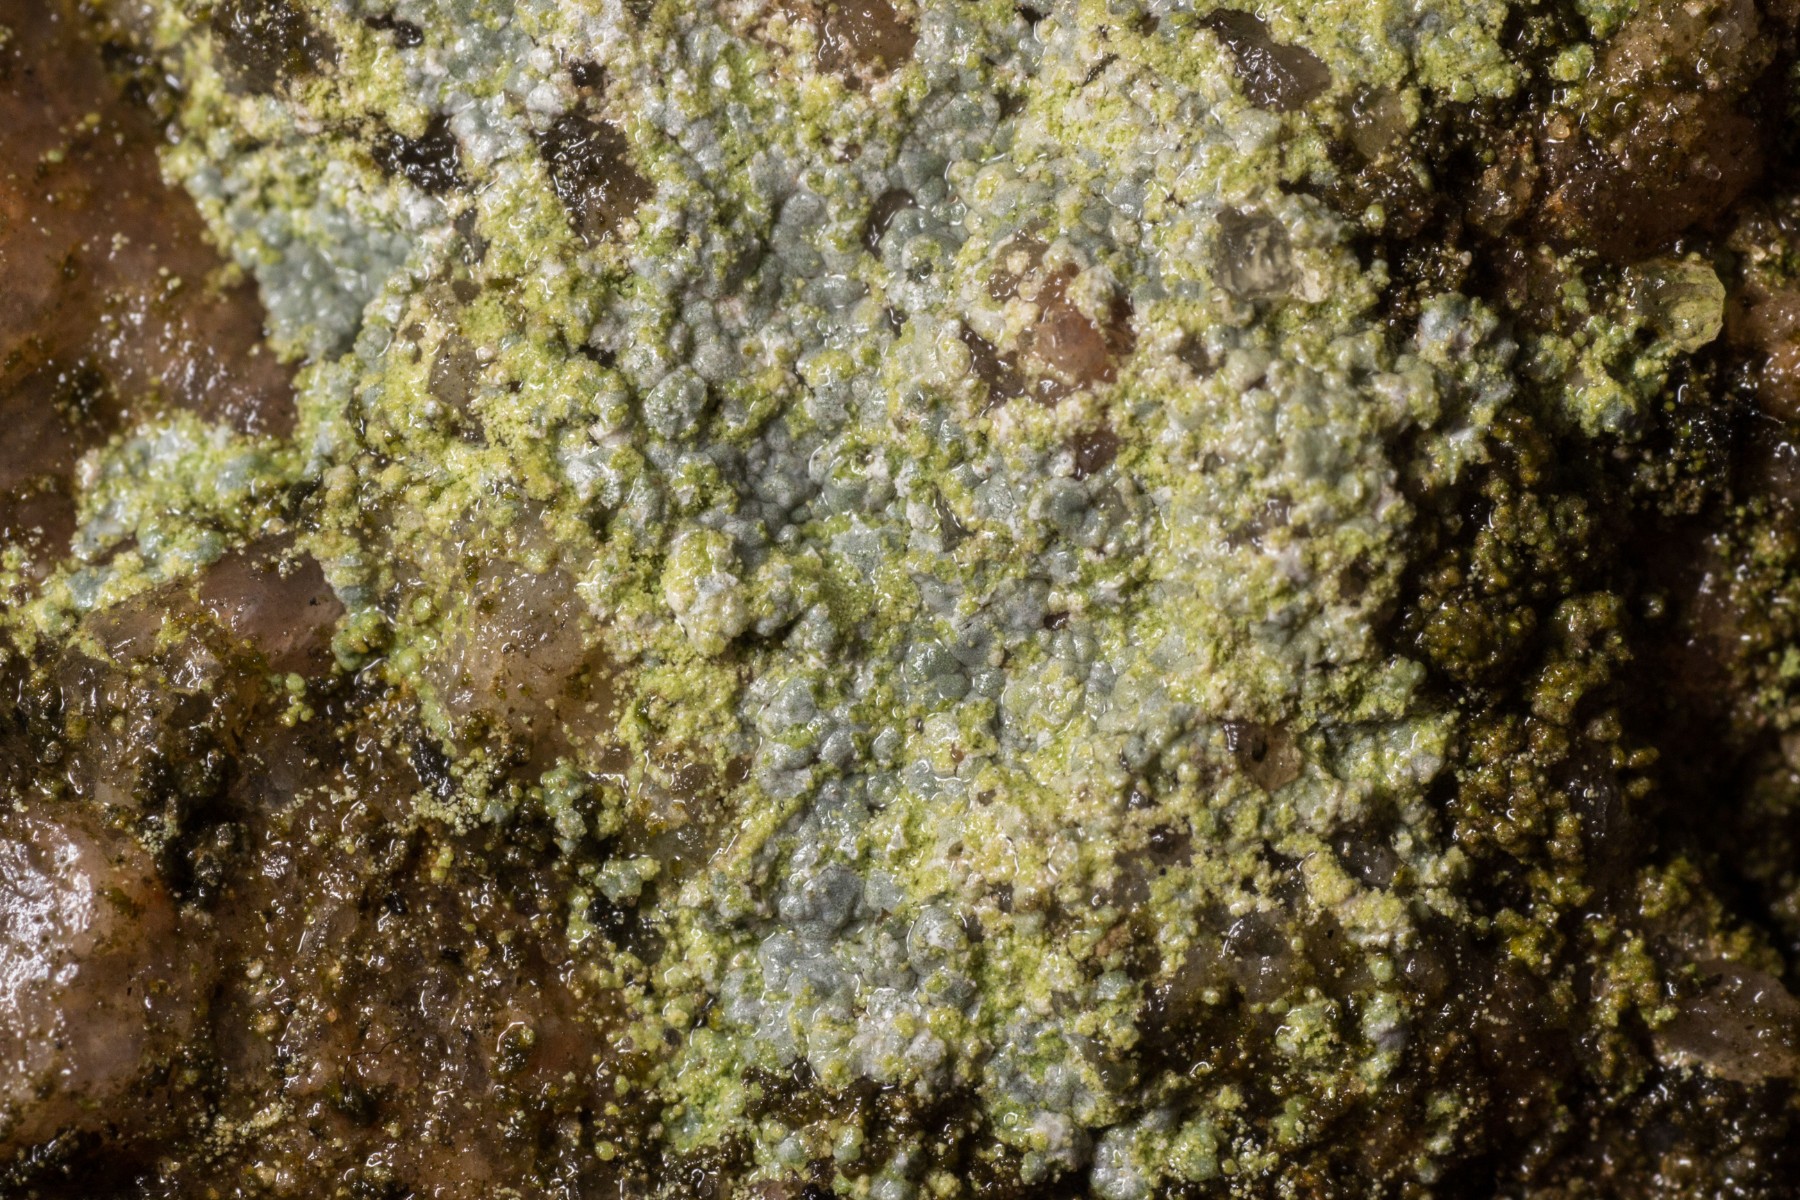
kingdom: Fungi
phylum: Ascomycota
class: Lecanoromycetes
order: Baeomycetales
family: Trapeliaceae
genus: Kleopowiella
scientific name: Kleopowiella placodioides
